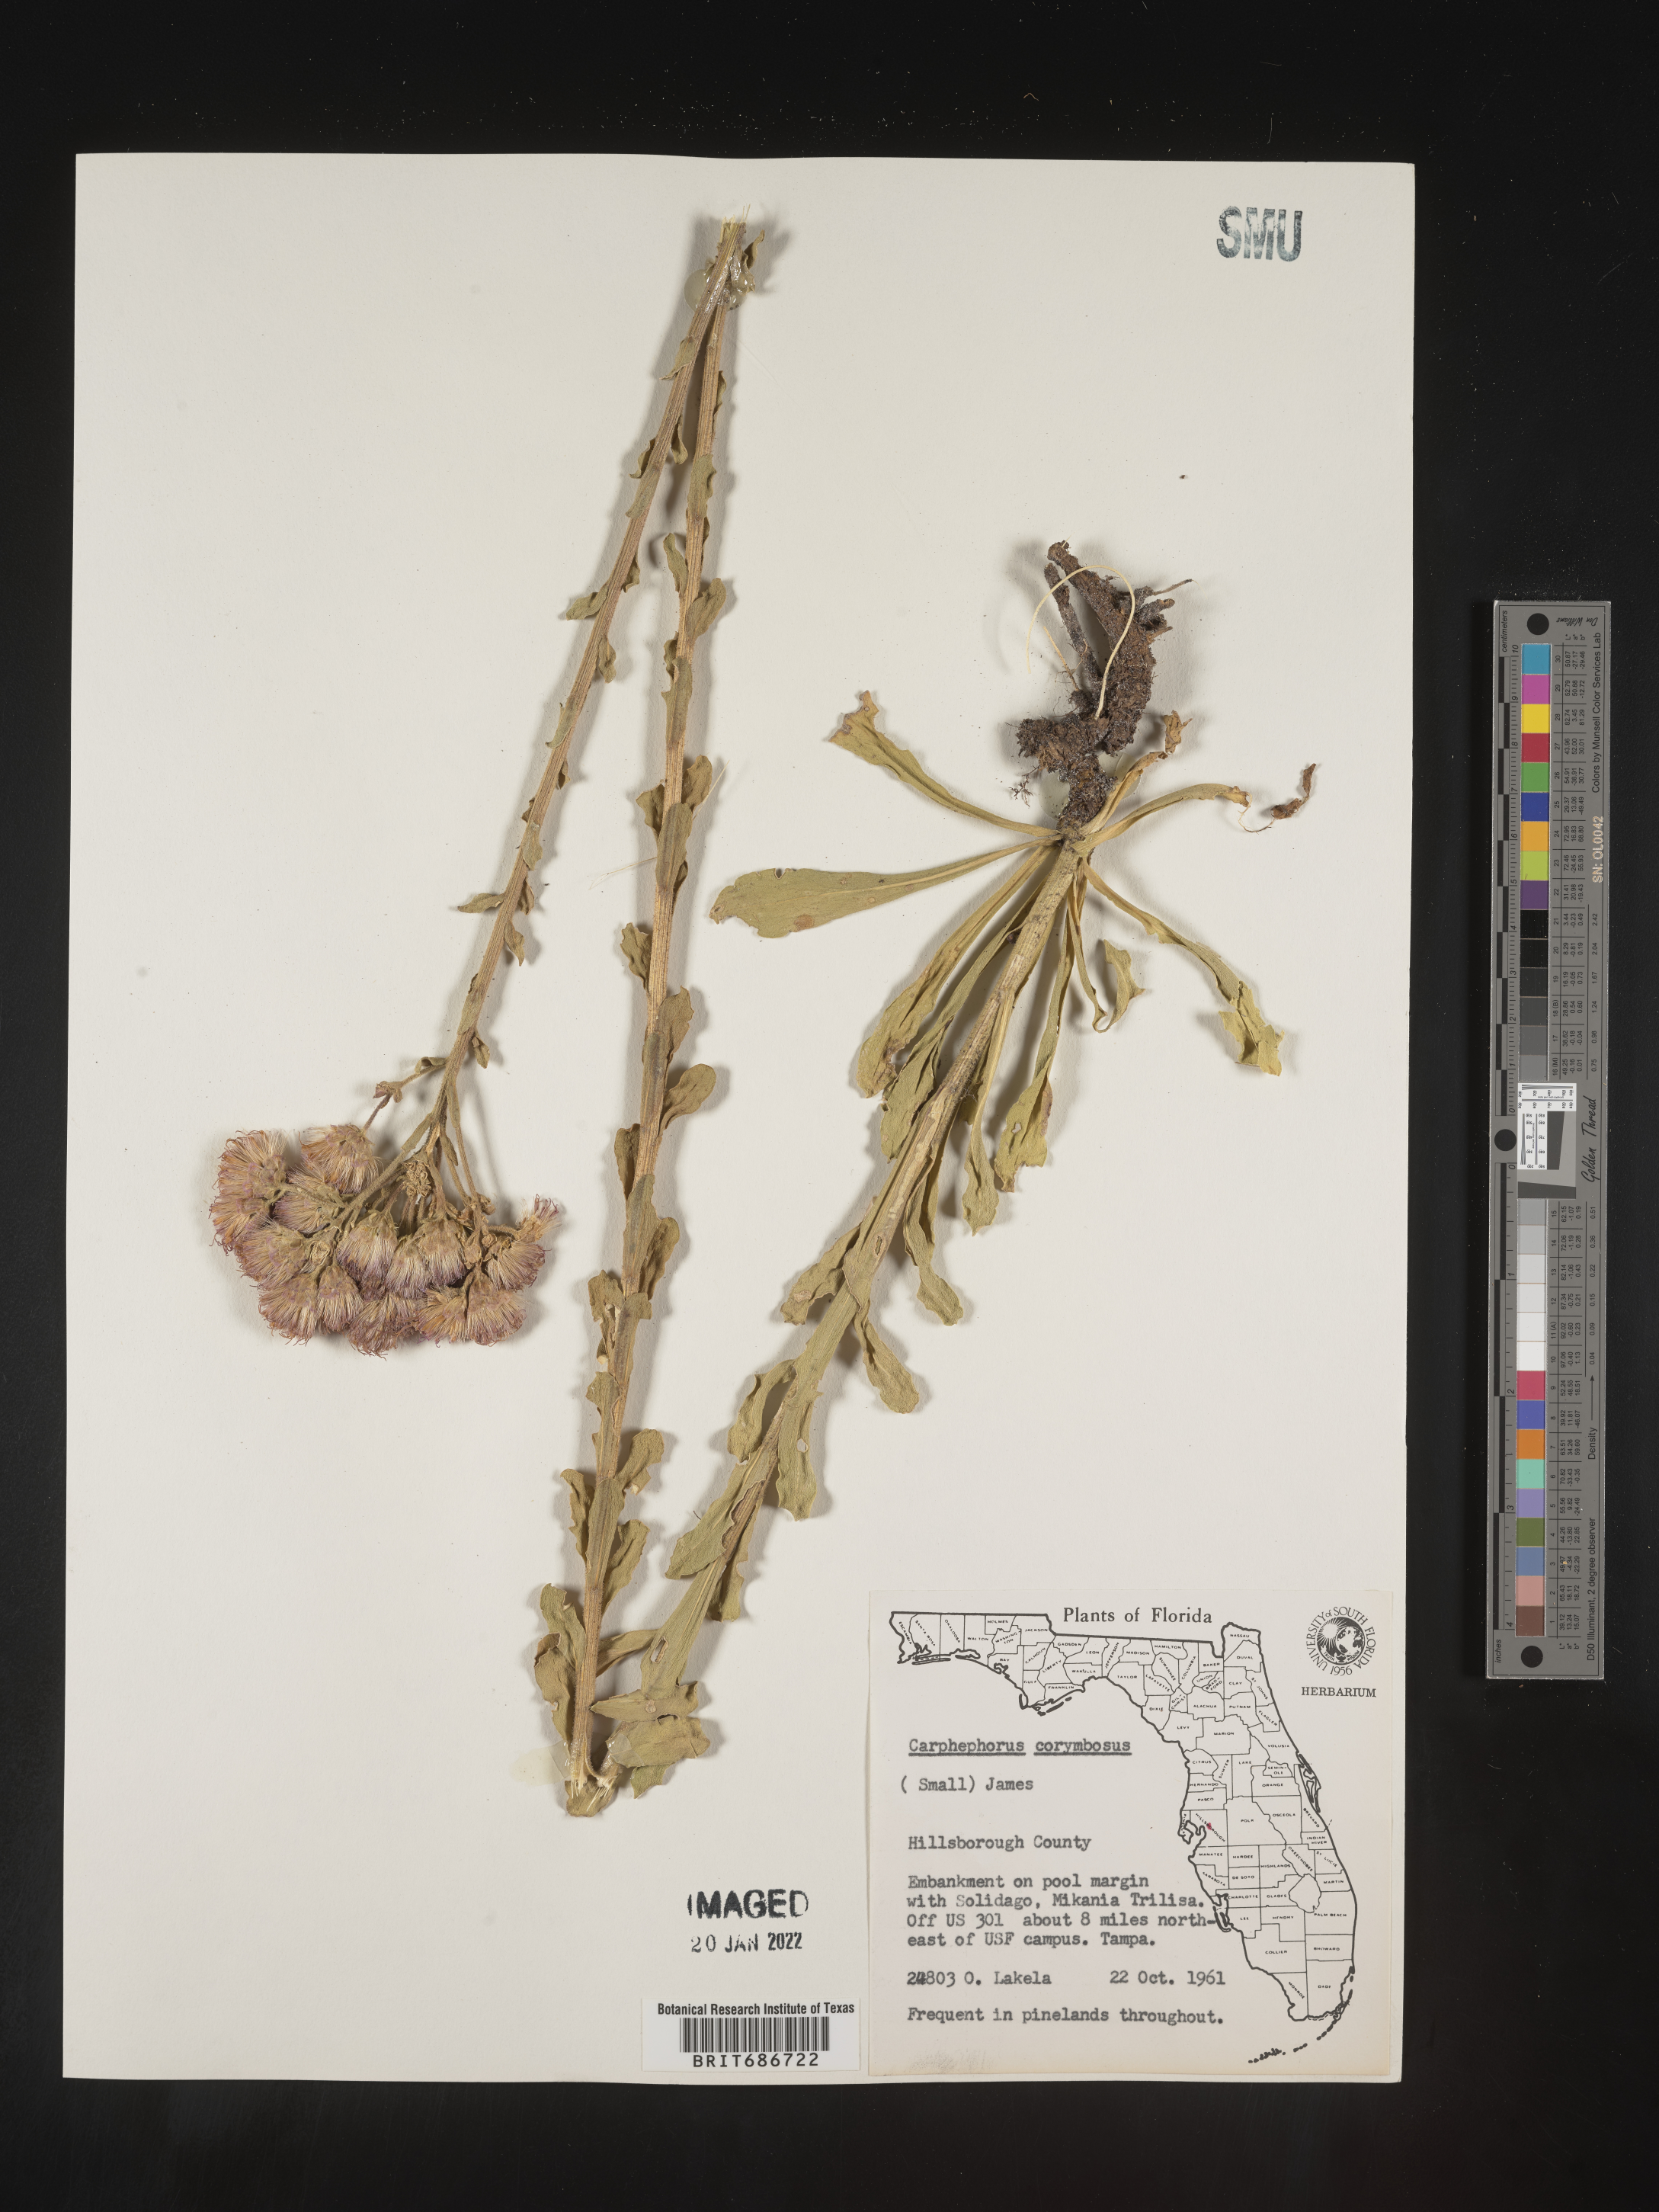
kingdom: Plantae
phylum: Tracheophyta
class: Magnoliopsida
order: Asterales
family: Asteraceae
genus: Carphephorus
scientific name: Carphephorus corymbosus
